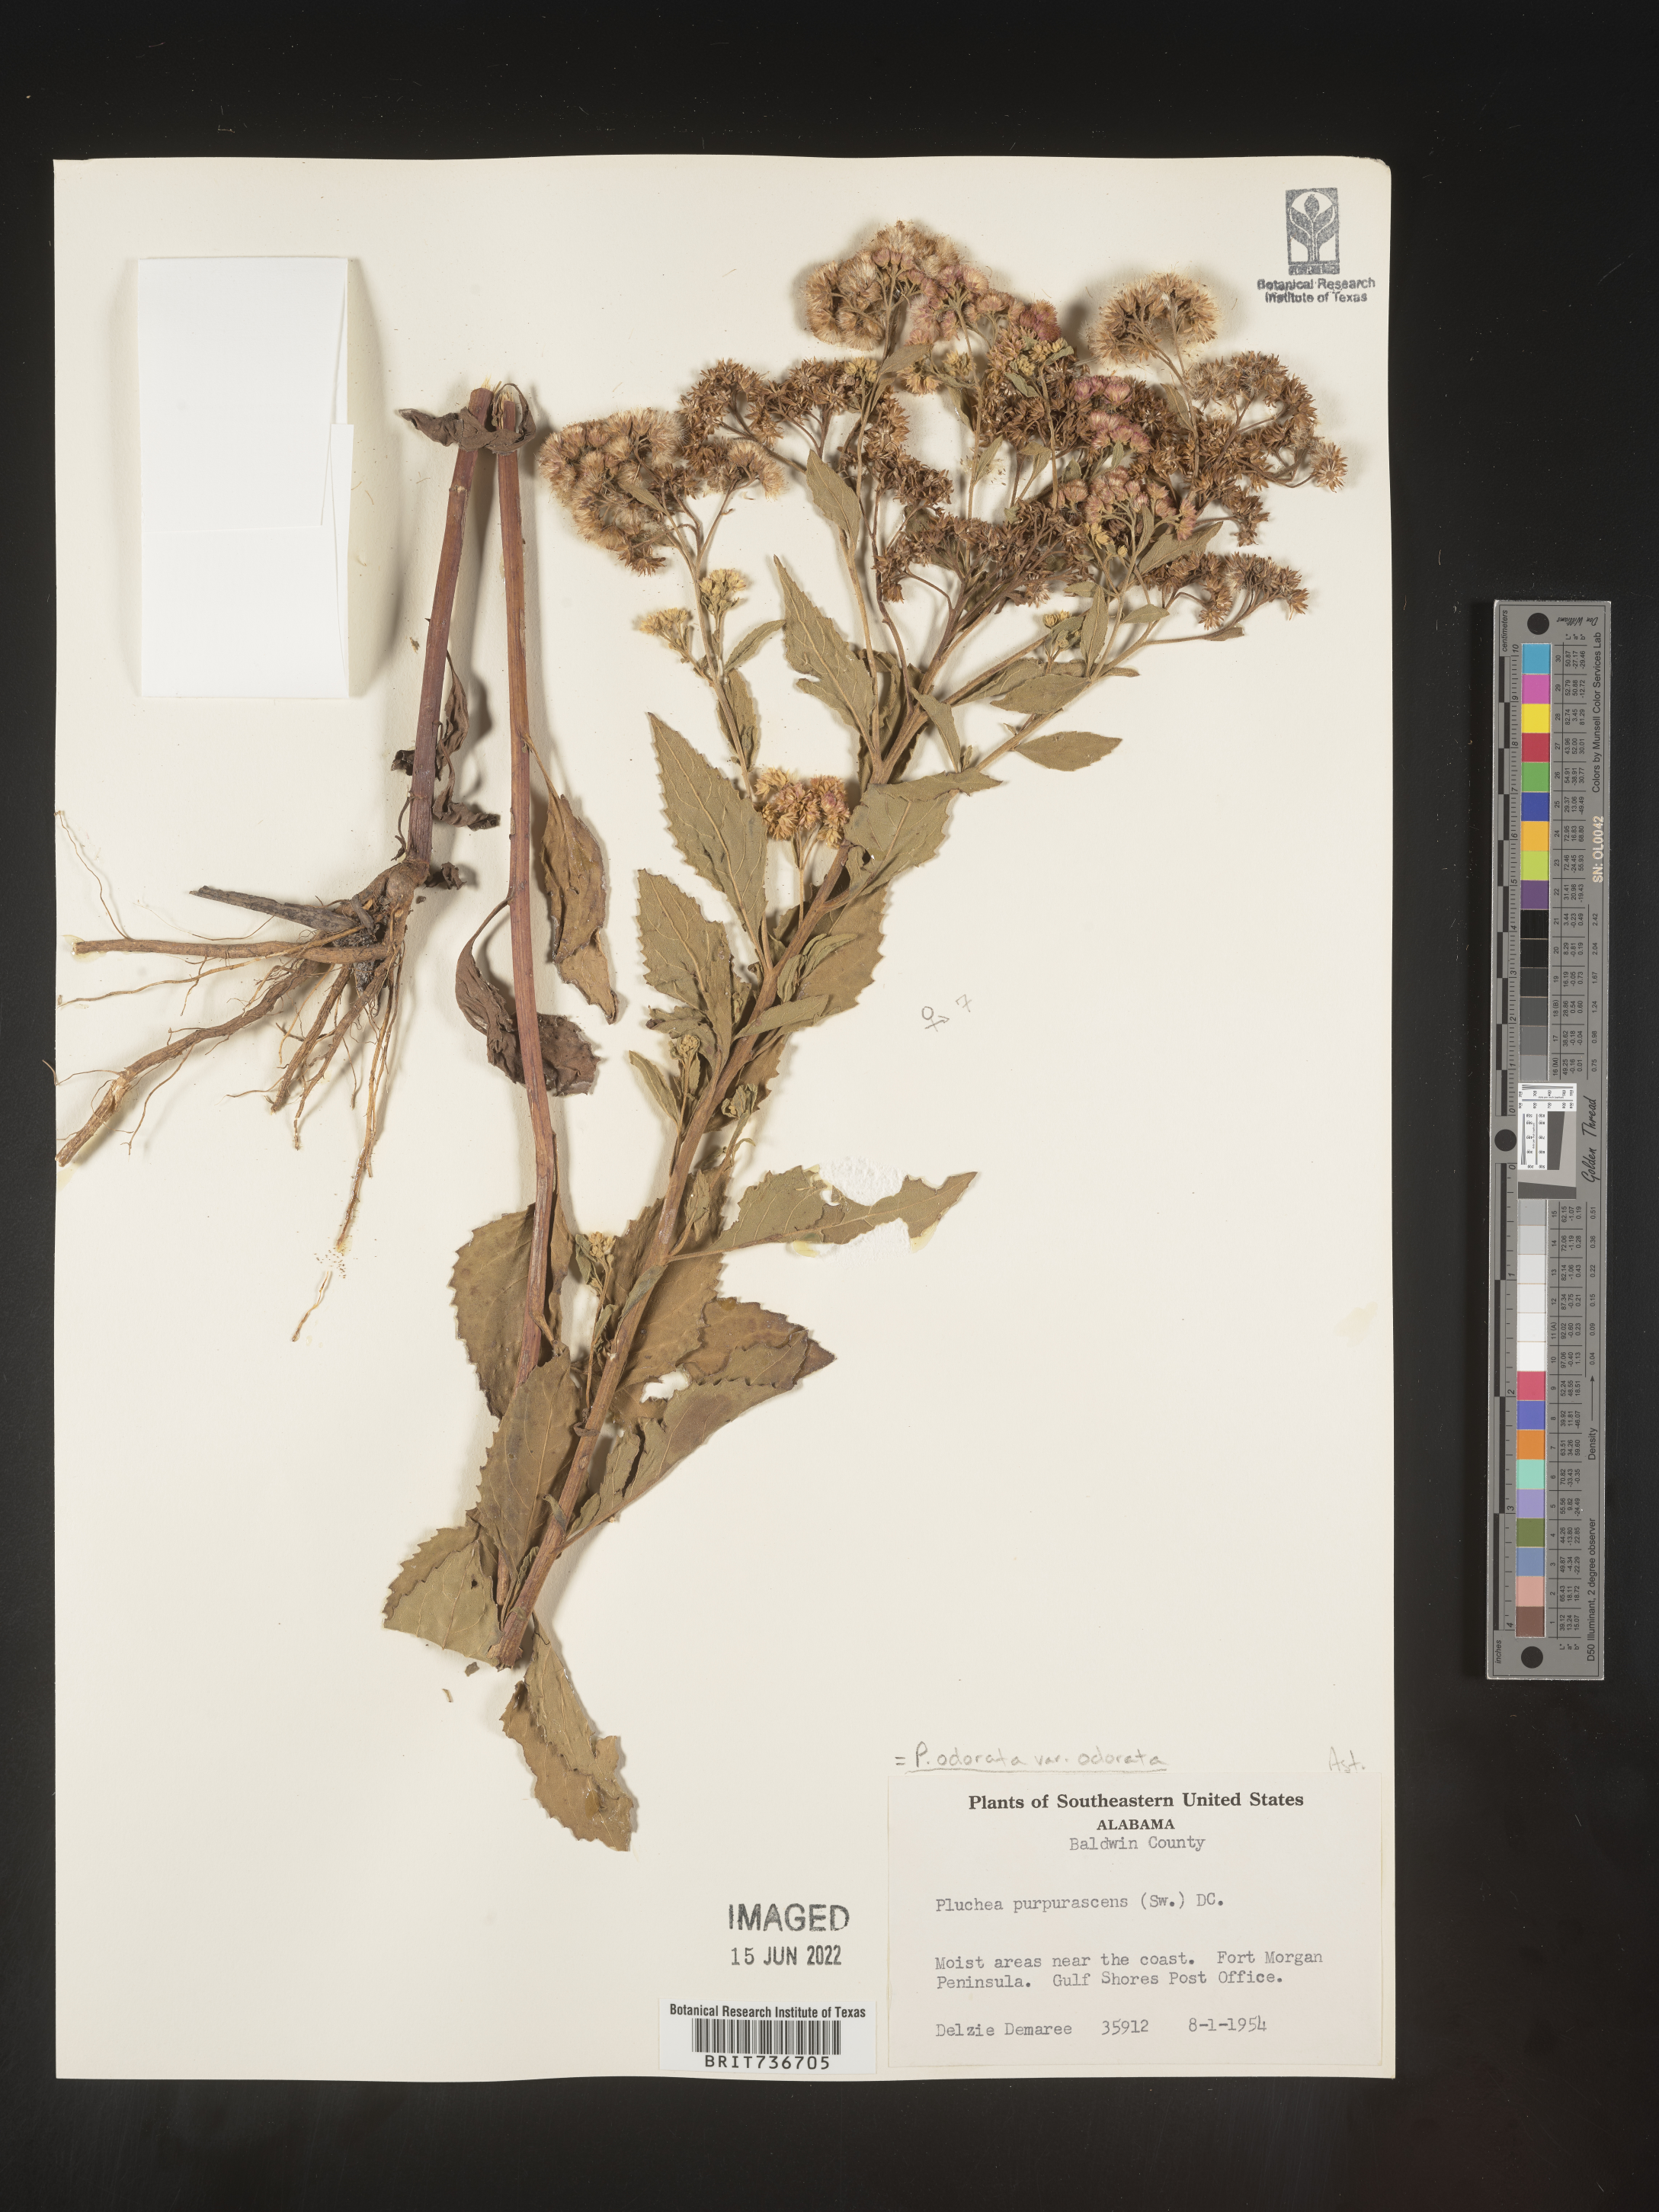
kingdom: Plantae
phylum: Tracheophyta
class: Magnoliopsida
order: Asterales
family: Asteraceae
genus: Pluchea
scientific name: Pluchea odorata
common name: Saltmarsh fleabane
